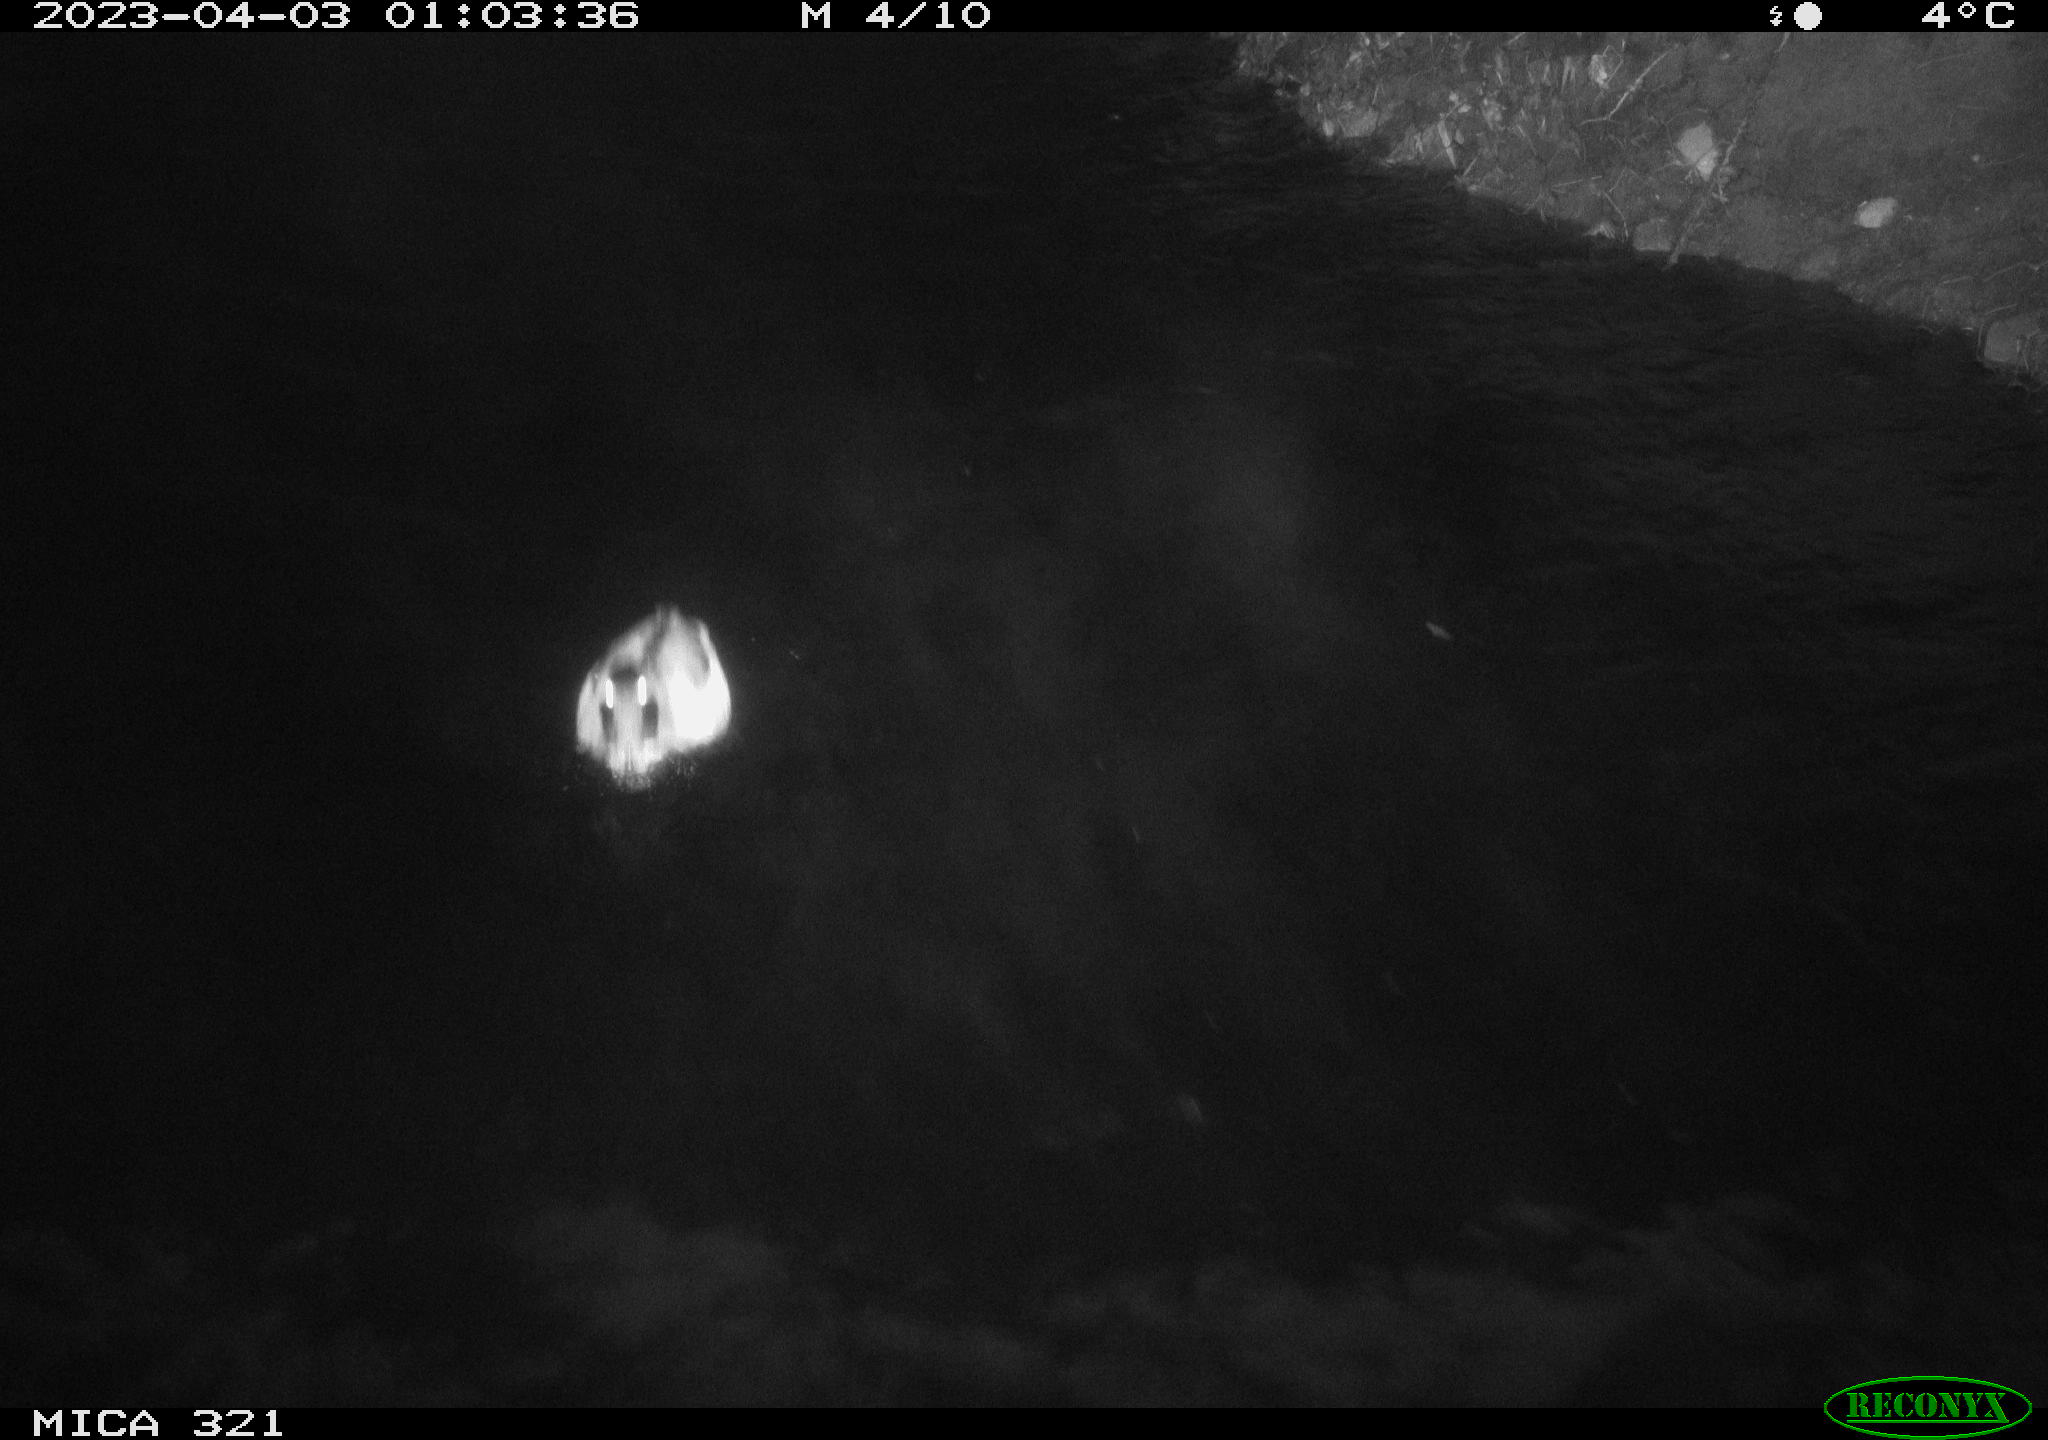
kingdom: Animalia
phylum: Chordata
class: Mammalia
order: Rodentia
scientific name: Rodentia
